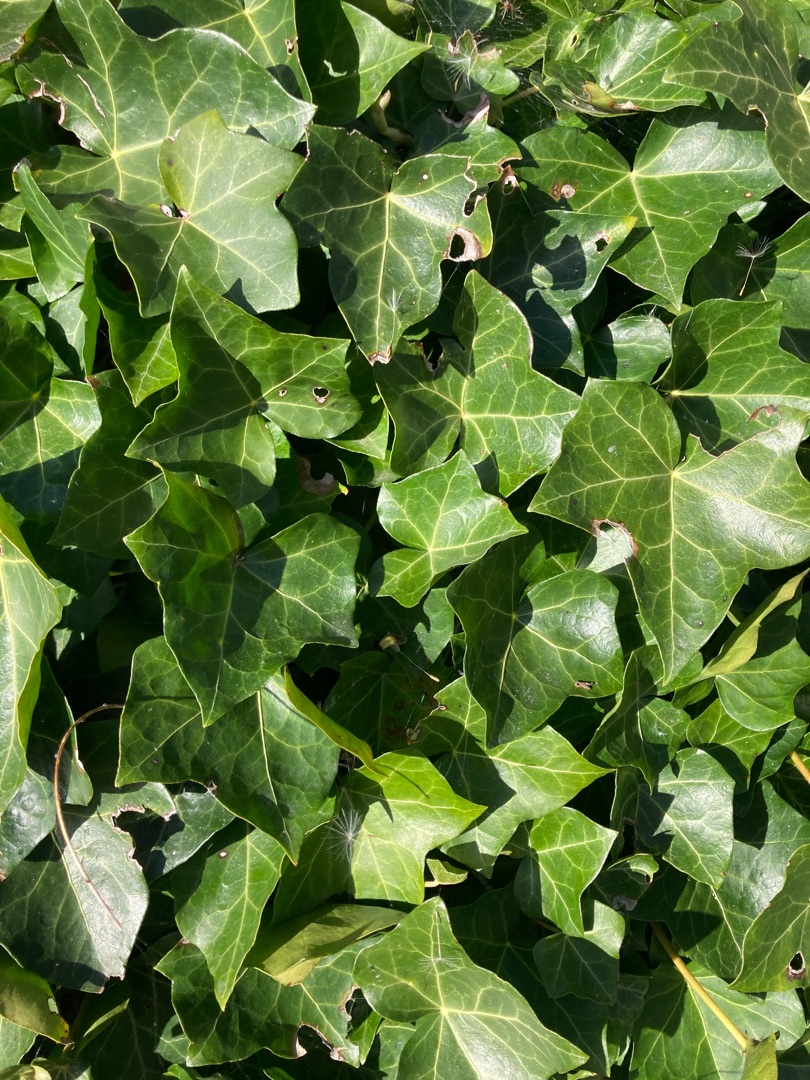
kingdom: Plantae
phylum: Tracheophyta
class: Magnoliopsida
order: Apiales
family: Araliaceae
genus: Hedera
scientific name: Hedera helix
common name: Vedbend
